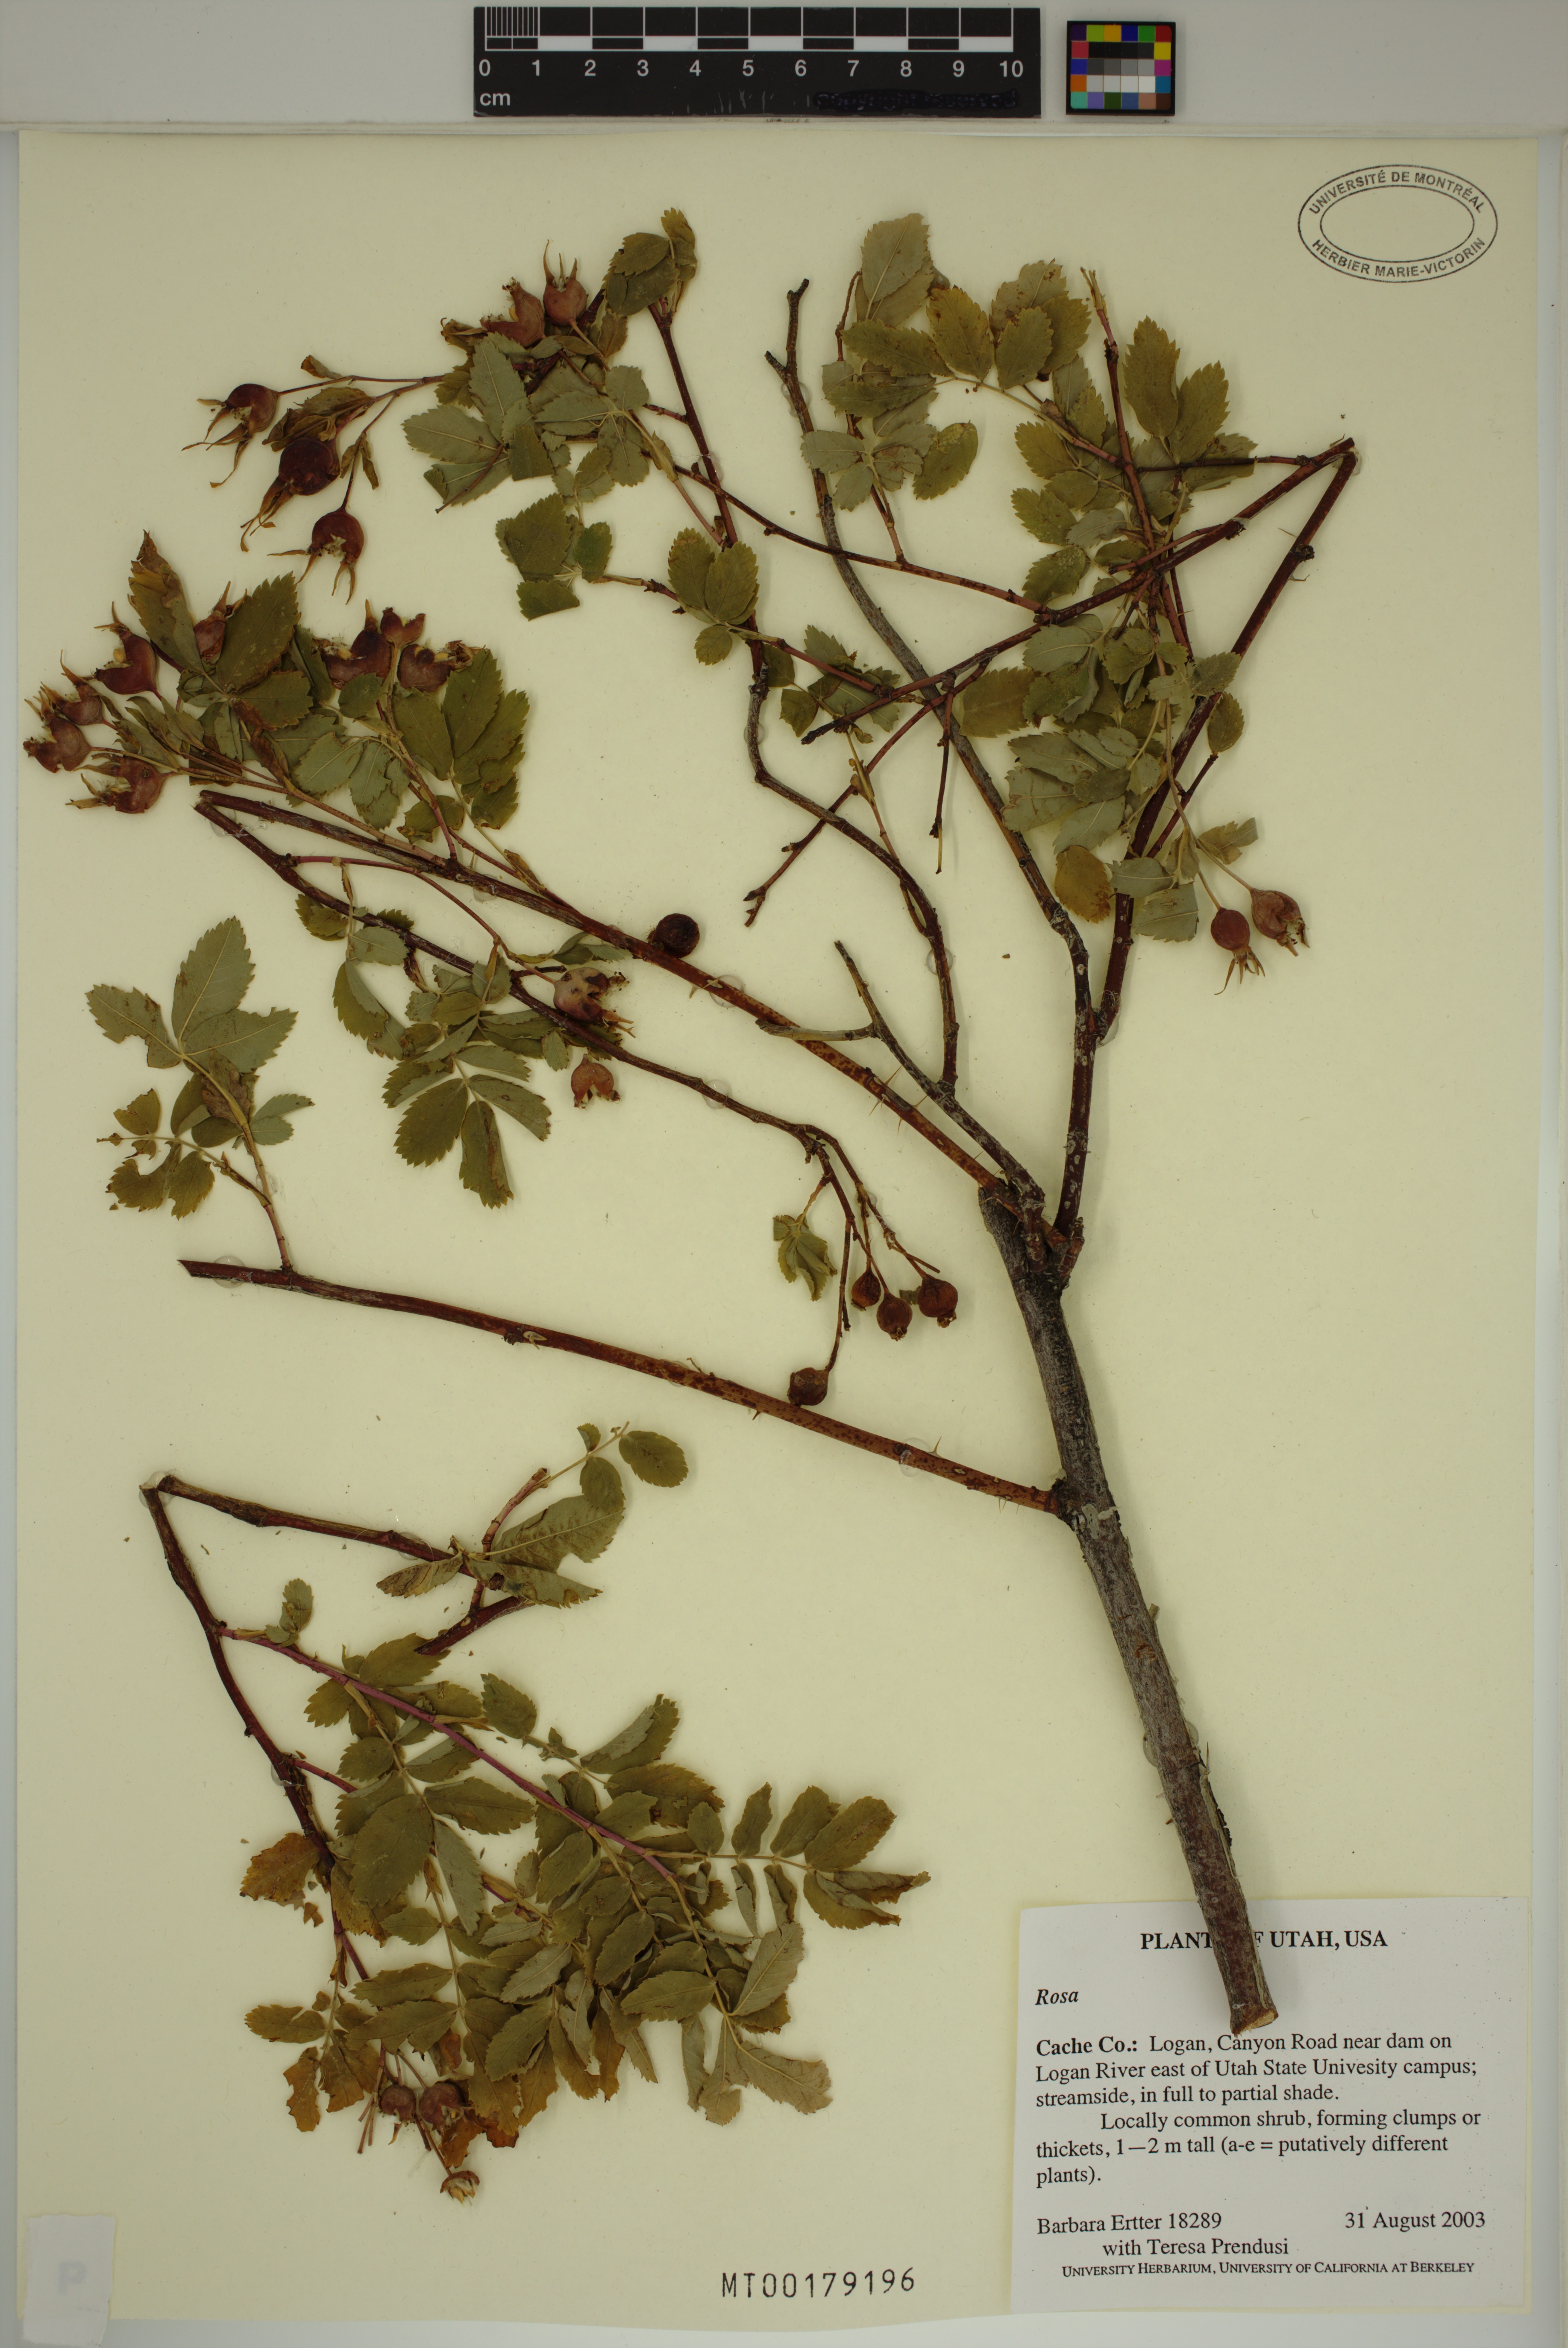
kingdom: Plantae
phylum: Tracheophyta
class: Magnoliopsida
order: Rosales
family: Rosaceae
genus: Rosa
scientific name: Rosa
